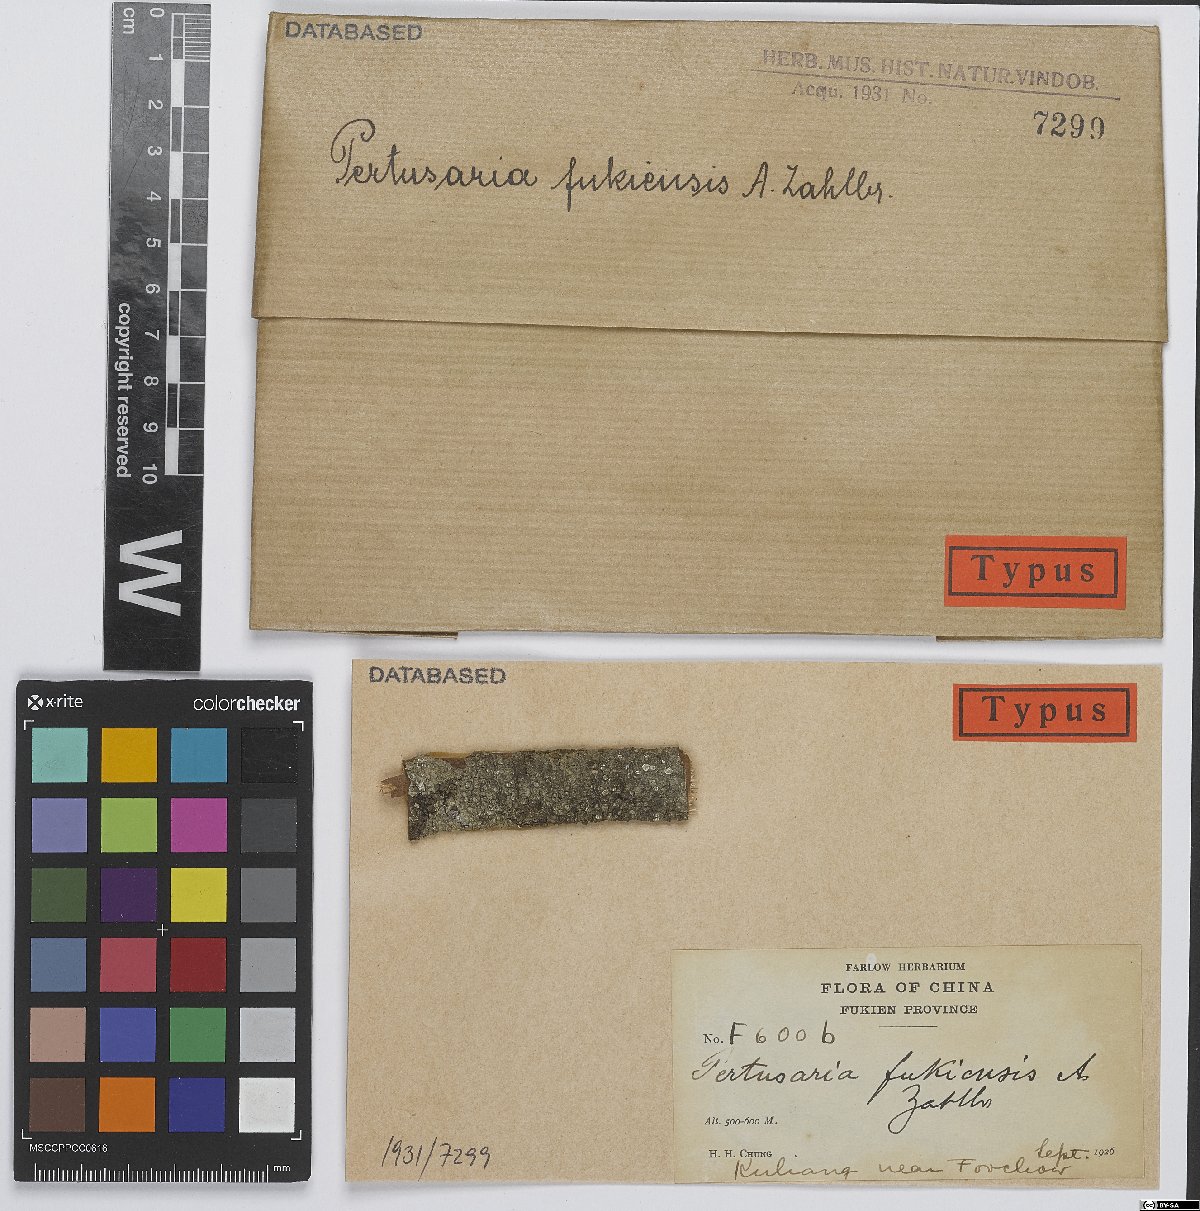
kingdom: Fungi
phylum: Ascomycota
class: Lecanoromycetes
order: Pertusariales
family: Pertusariaceae
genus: Pertusaria
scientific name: Pertusaria
